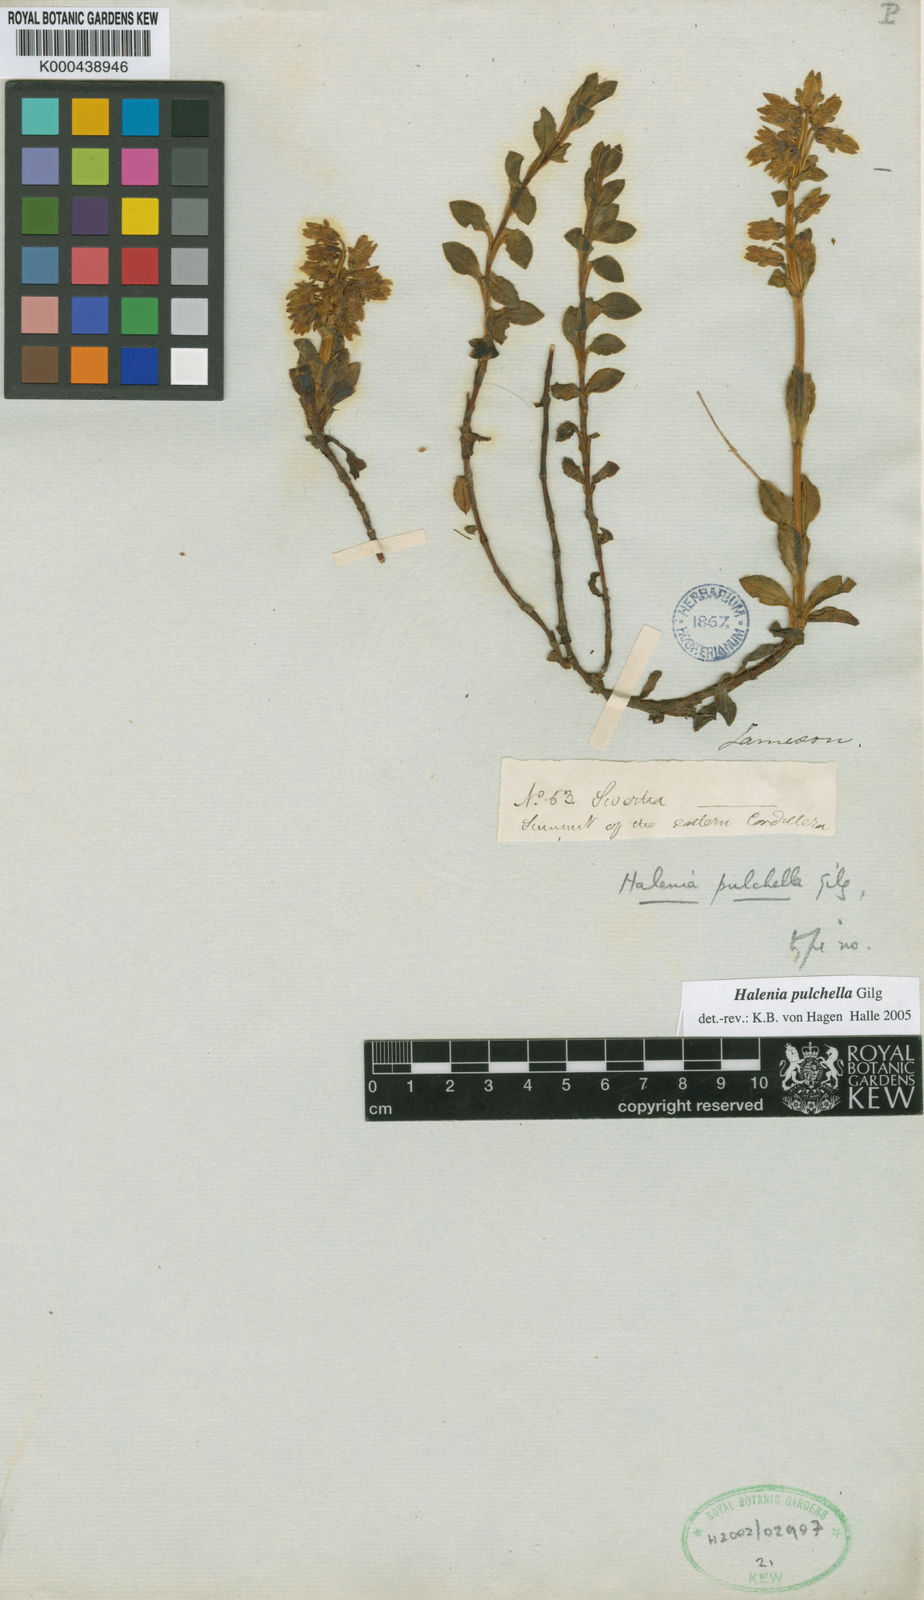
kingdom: Plantae
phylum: Tracheophyta
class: Magnoliopsida
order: Gentianales
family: Gentianaceae
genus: Halenia
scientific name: Halenia pulchella
